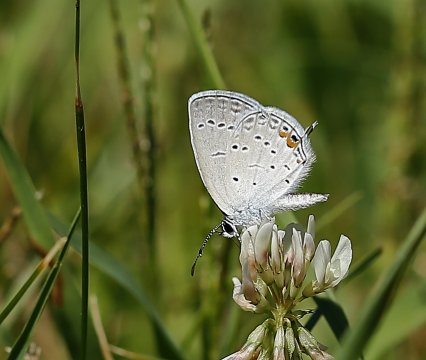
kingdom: Animalia
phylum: Arthropoda
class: Insecta
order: Lepidoptera
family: Lycaenidae
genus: Elkalyce
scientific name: Elkalyce comyntas
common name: Eastern Tailed-Blue
